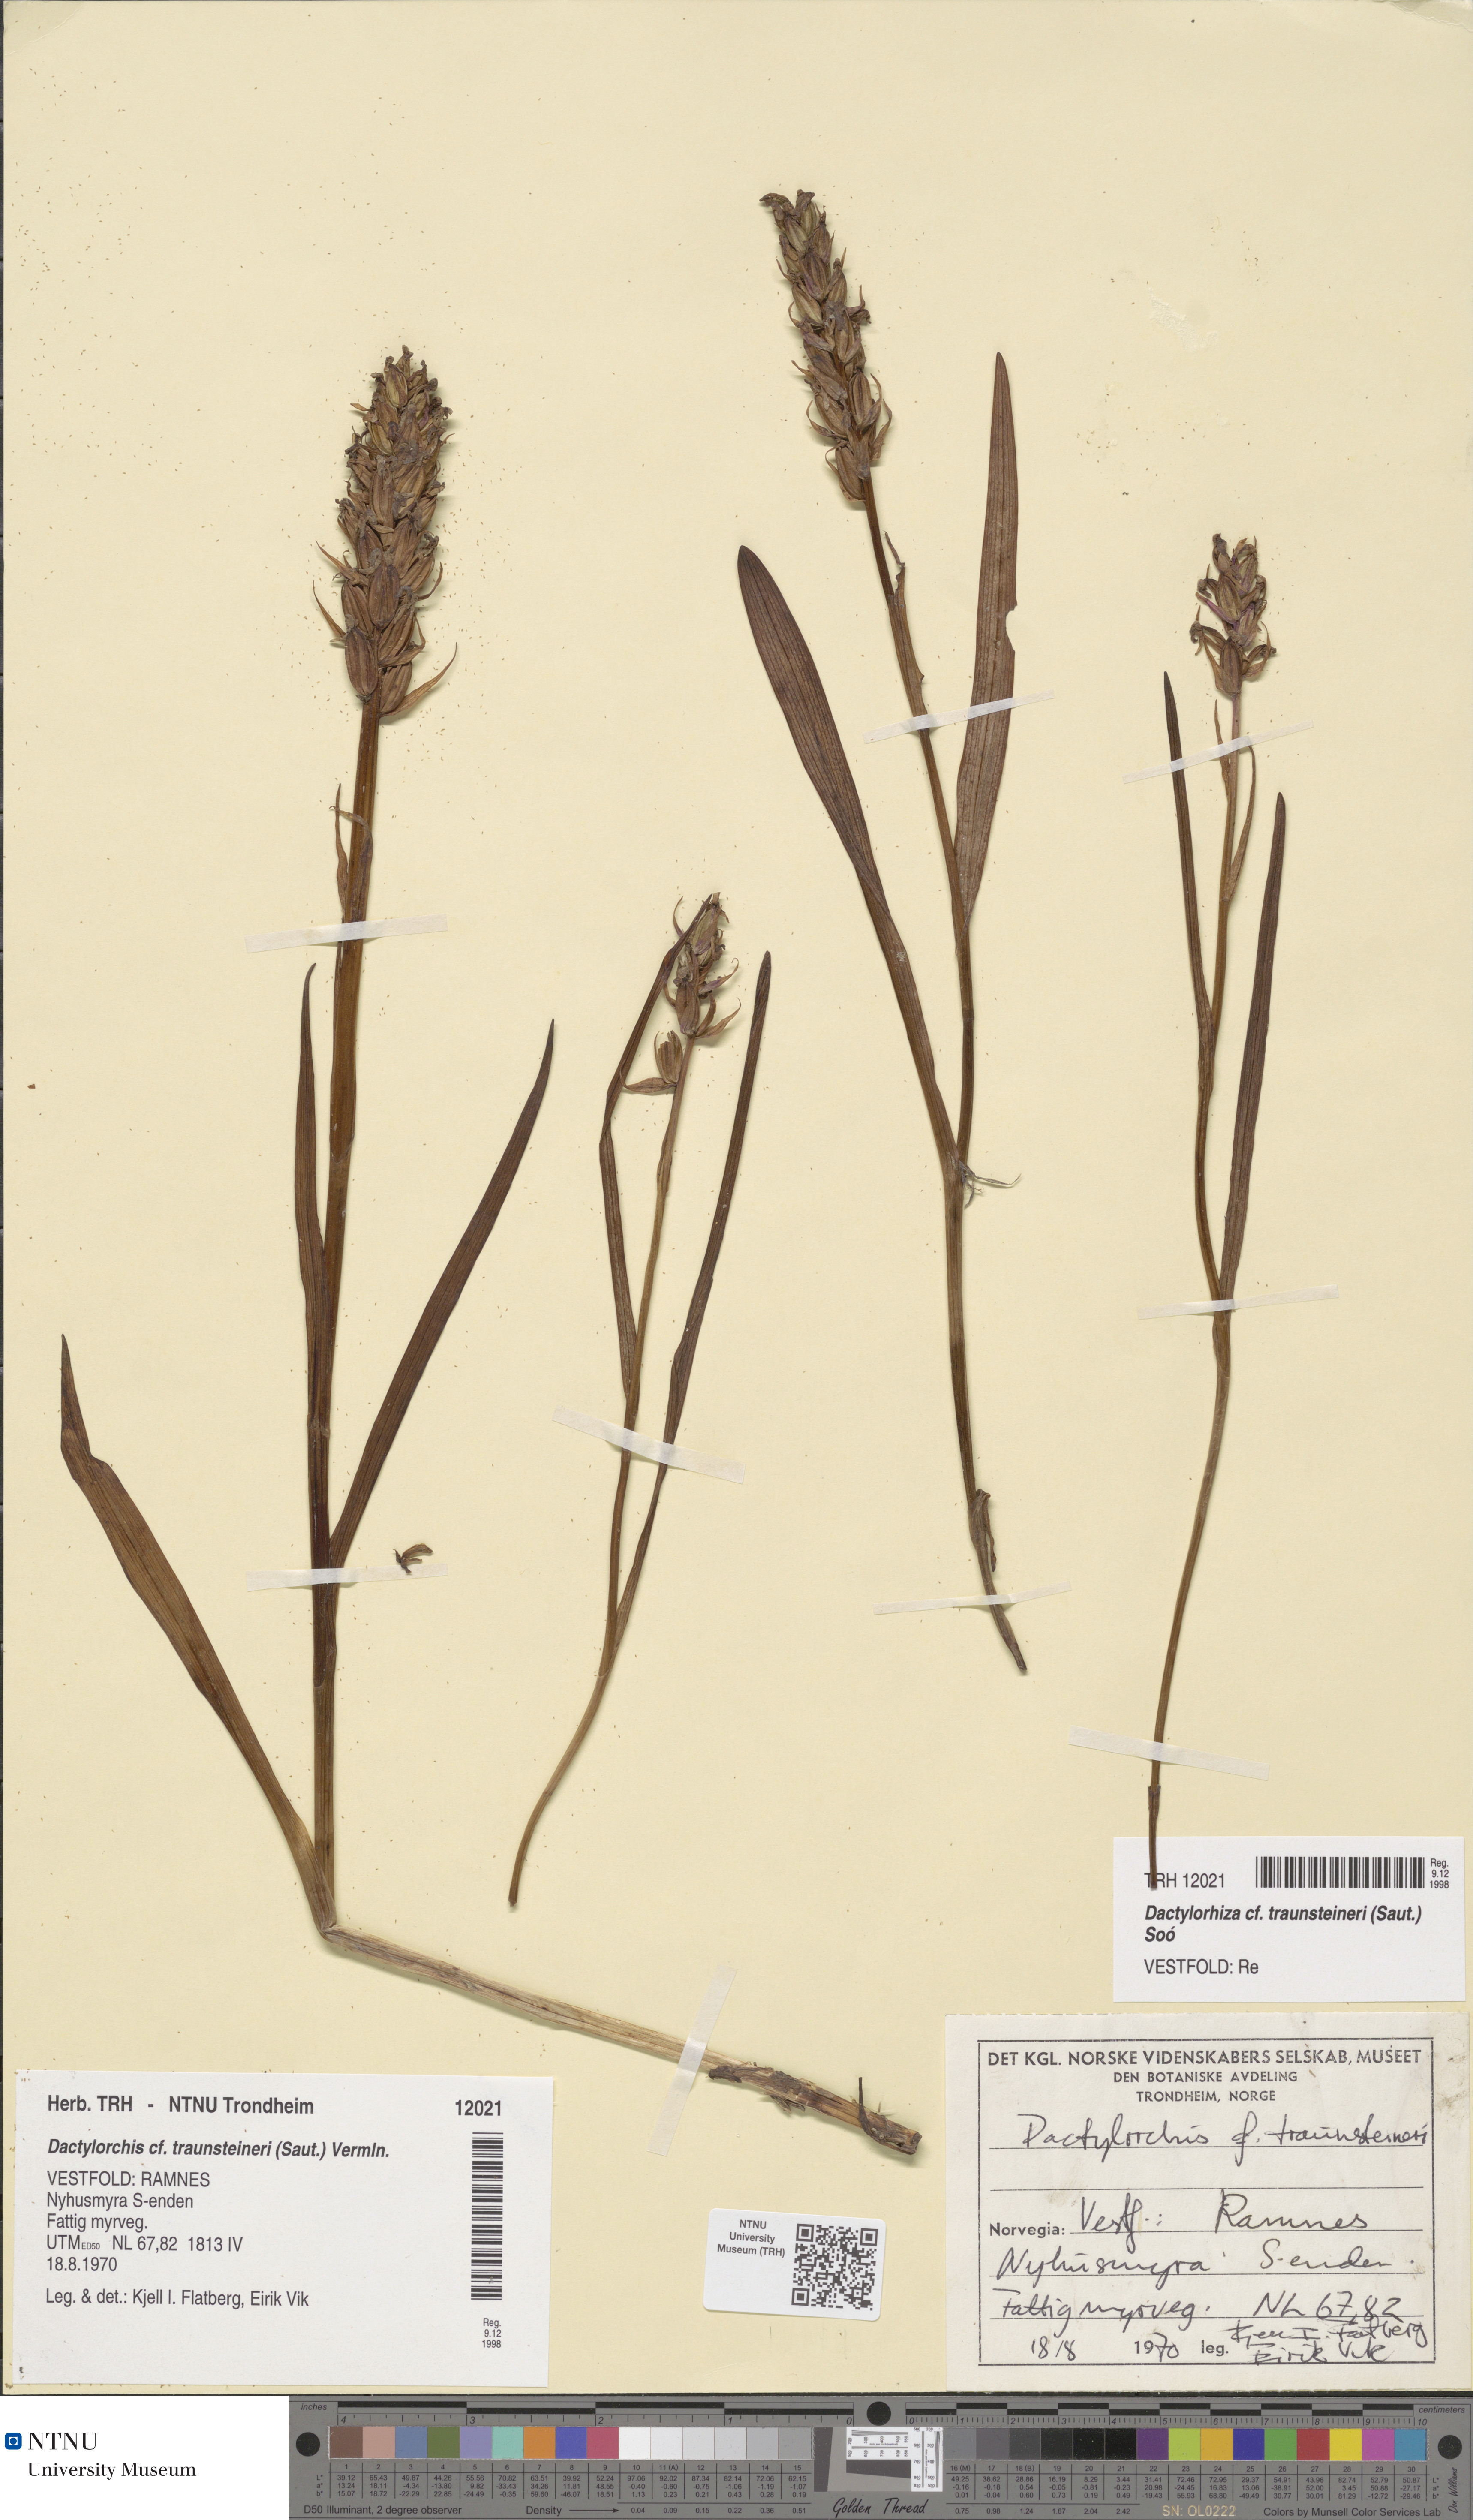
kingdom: Plantae
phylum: Tracheophyta
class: Liliopsida
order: Asparagales
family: Orchidaceae
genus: Dactylorhiza
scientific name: Dactylorhiza majalis
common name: Marsh orchid
